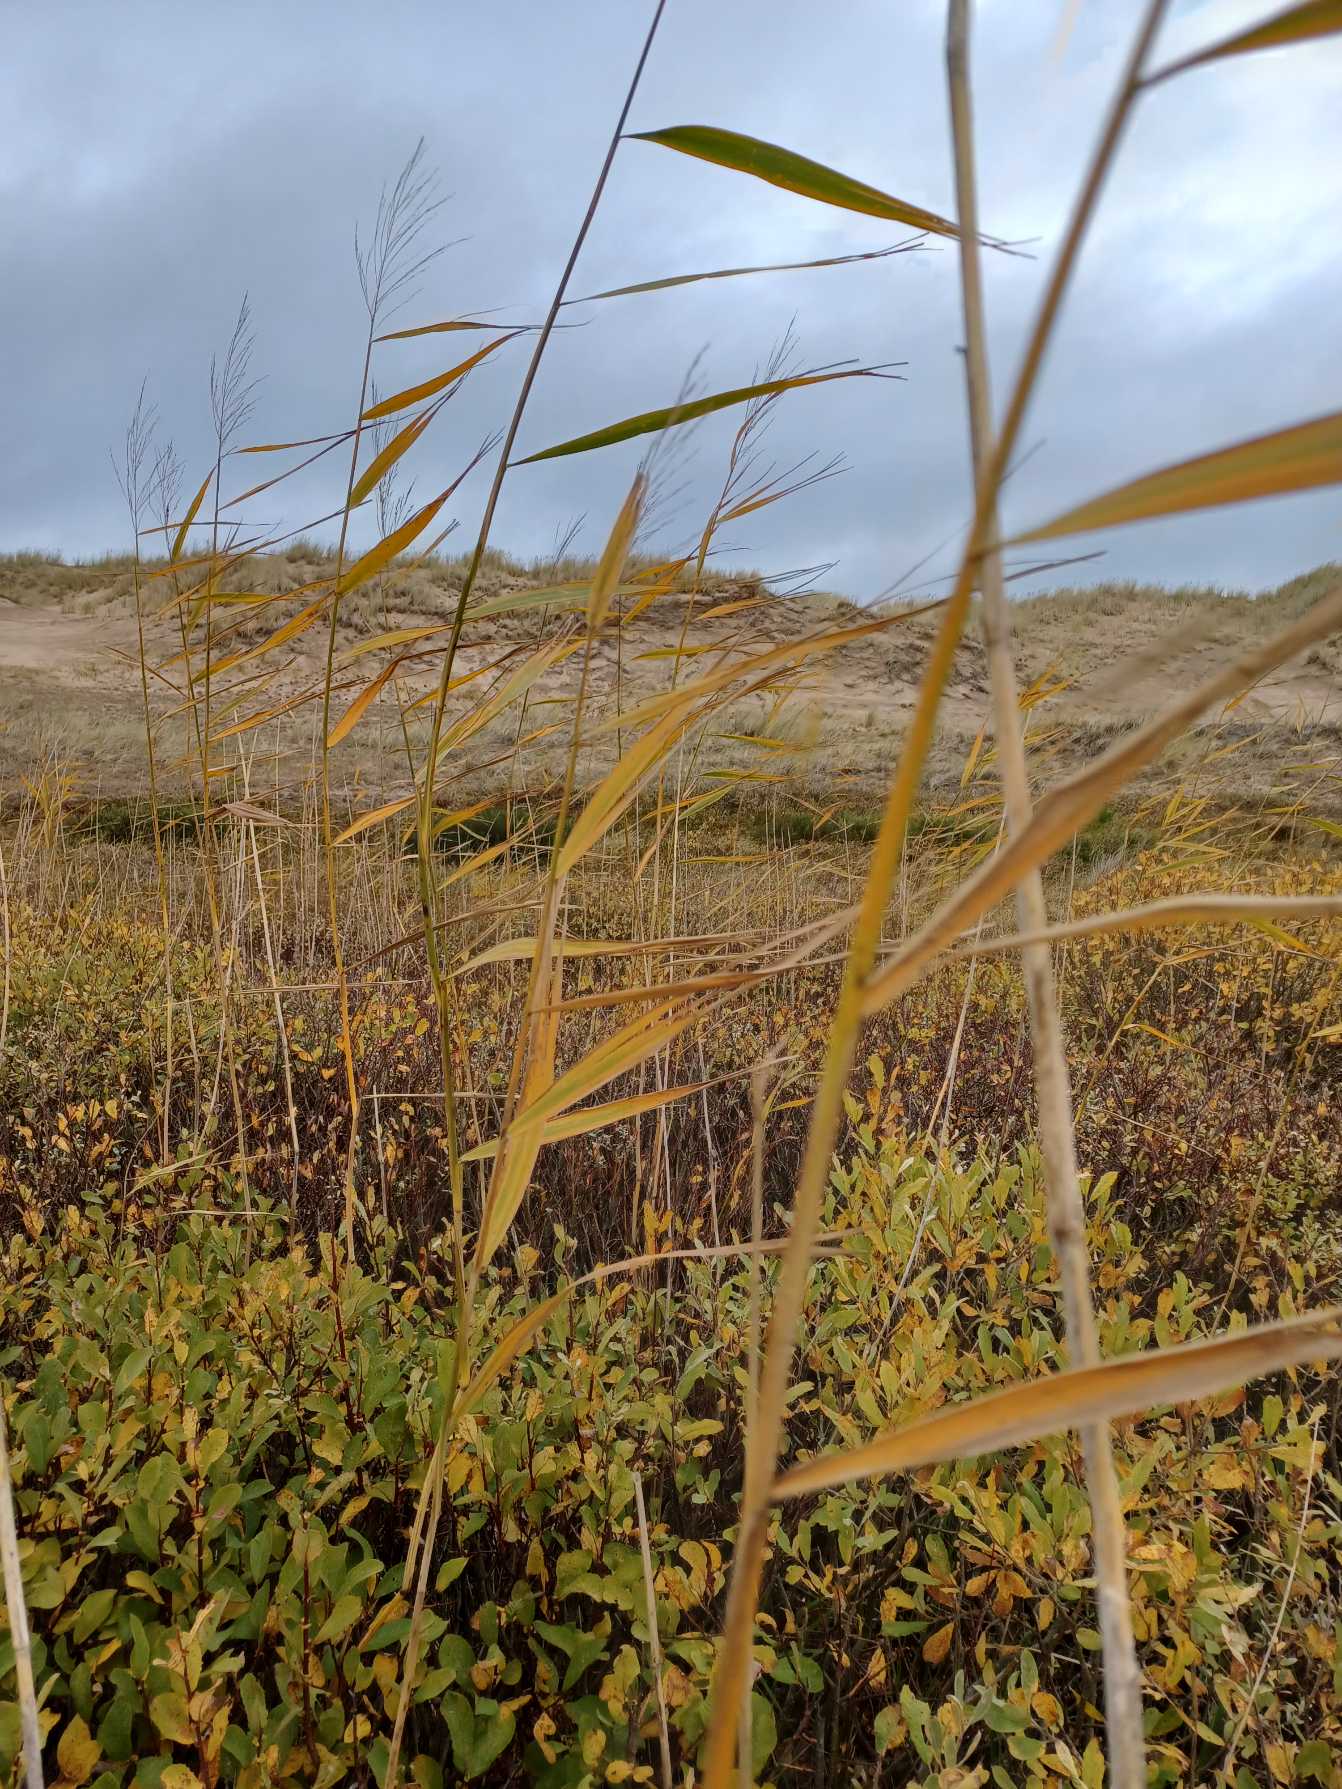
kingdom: Plantae
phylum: Tracheophyta
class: Liliopsida
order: Poales
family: Poaceae
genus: Phragmites
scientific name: Phragmites australis
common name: Tagrør
